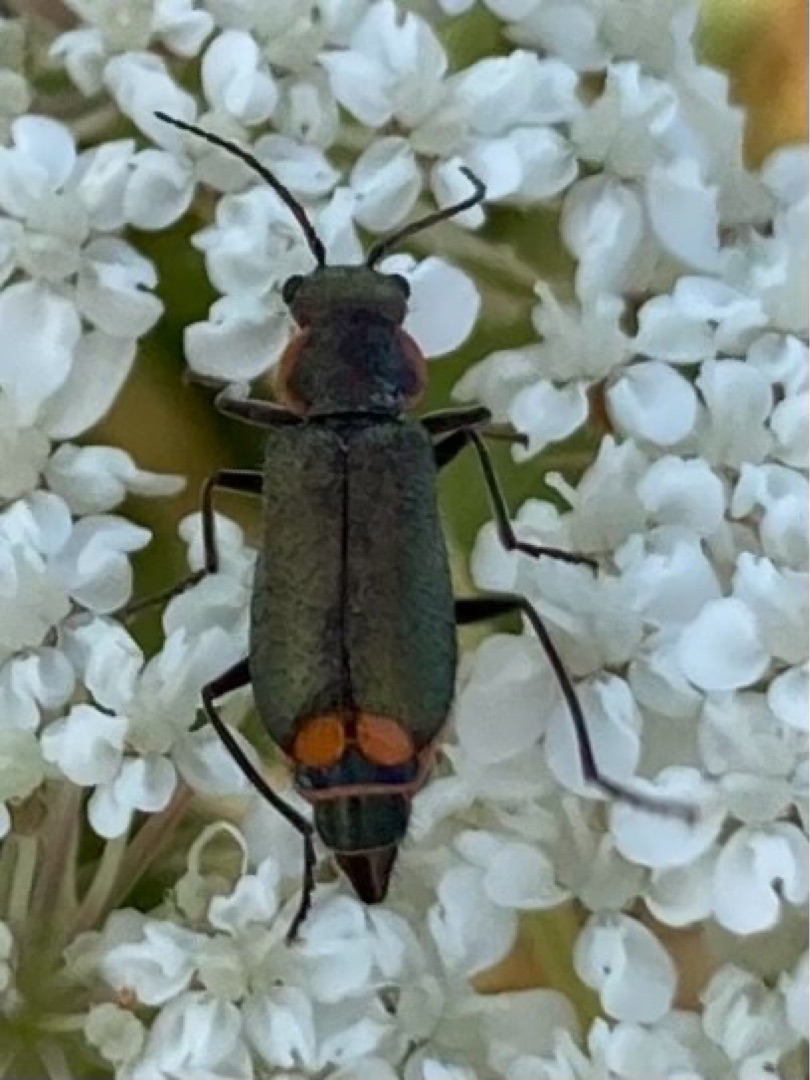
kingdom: Animalia
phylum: Arthropoda
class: Insecta
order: Coleoptera
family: Melyridae
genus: Malachius
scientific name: Malachius bipustulatus
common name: Skovmalakitbille
